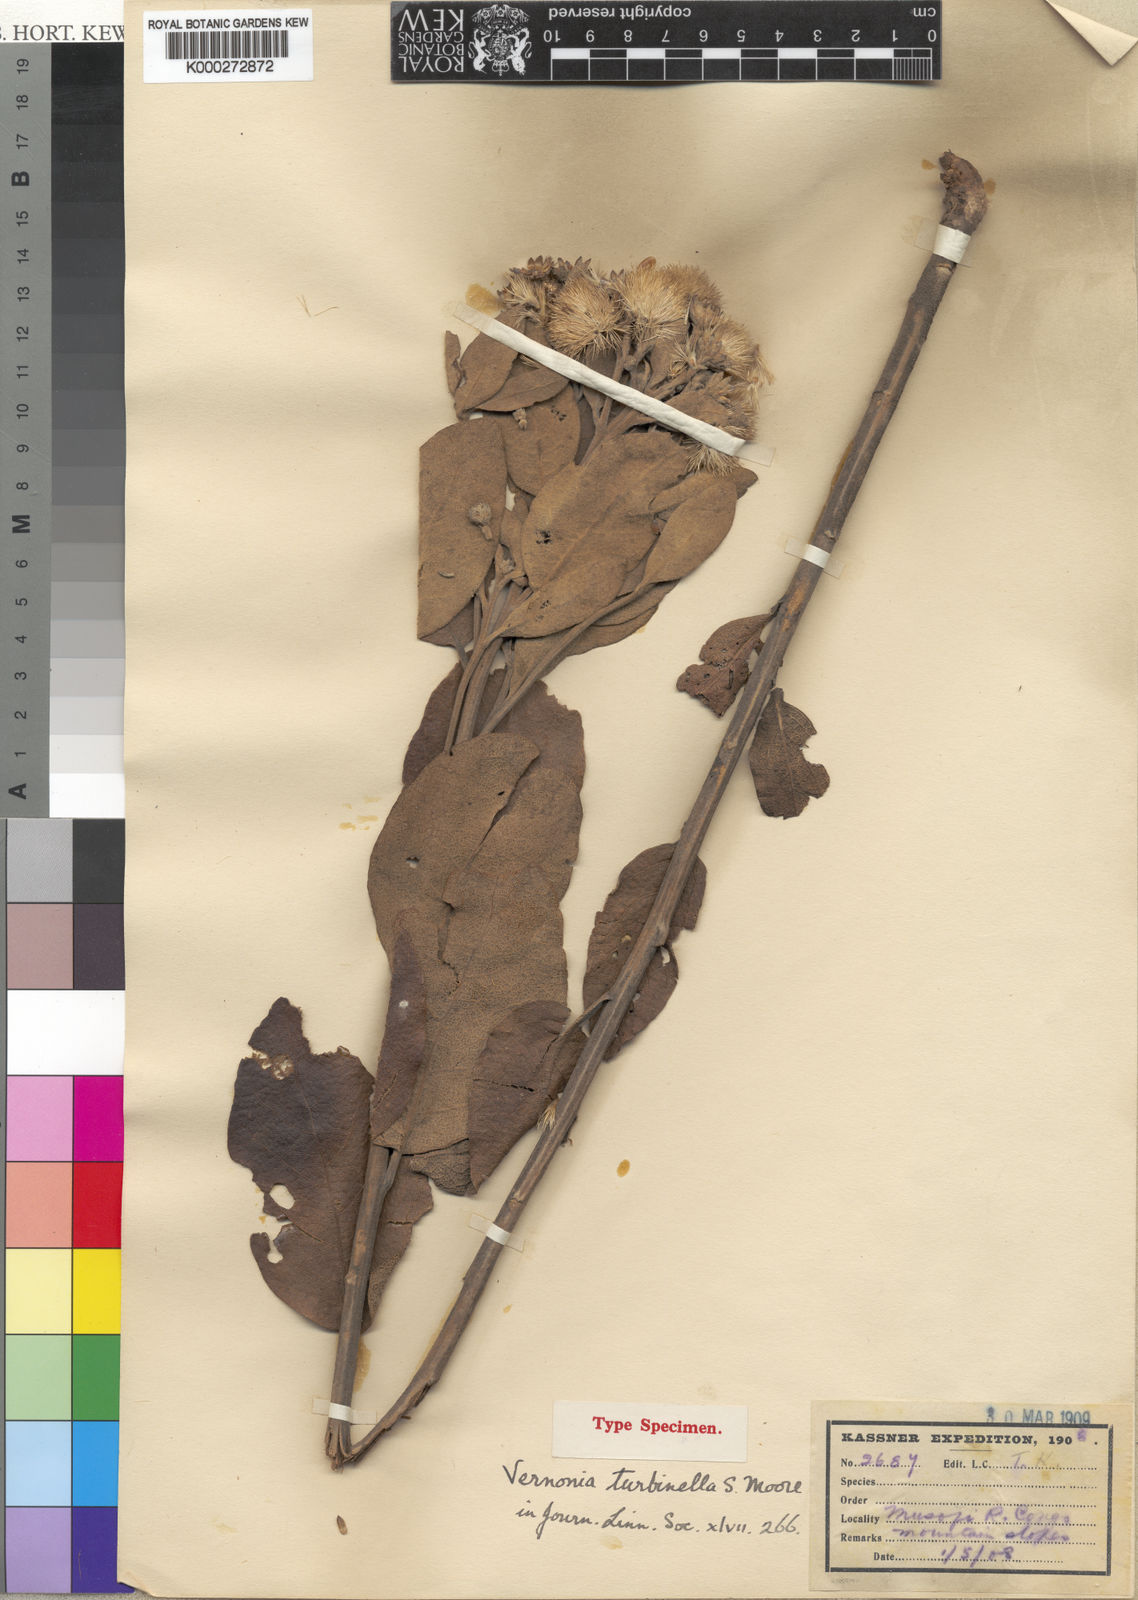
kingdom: Plantae
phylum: Tracheophyta
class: Magnoliopsida
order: Asterales
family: Asteraceae
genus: Lampropappus
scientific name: Lampropappus turbinellus
